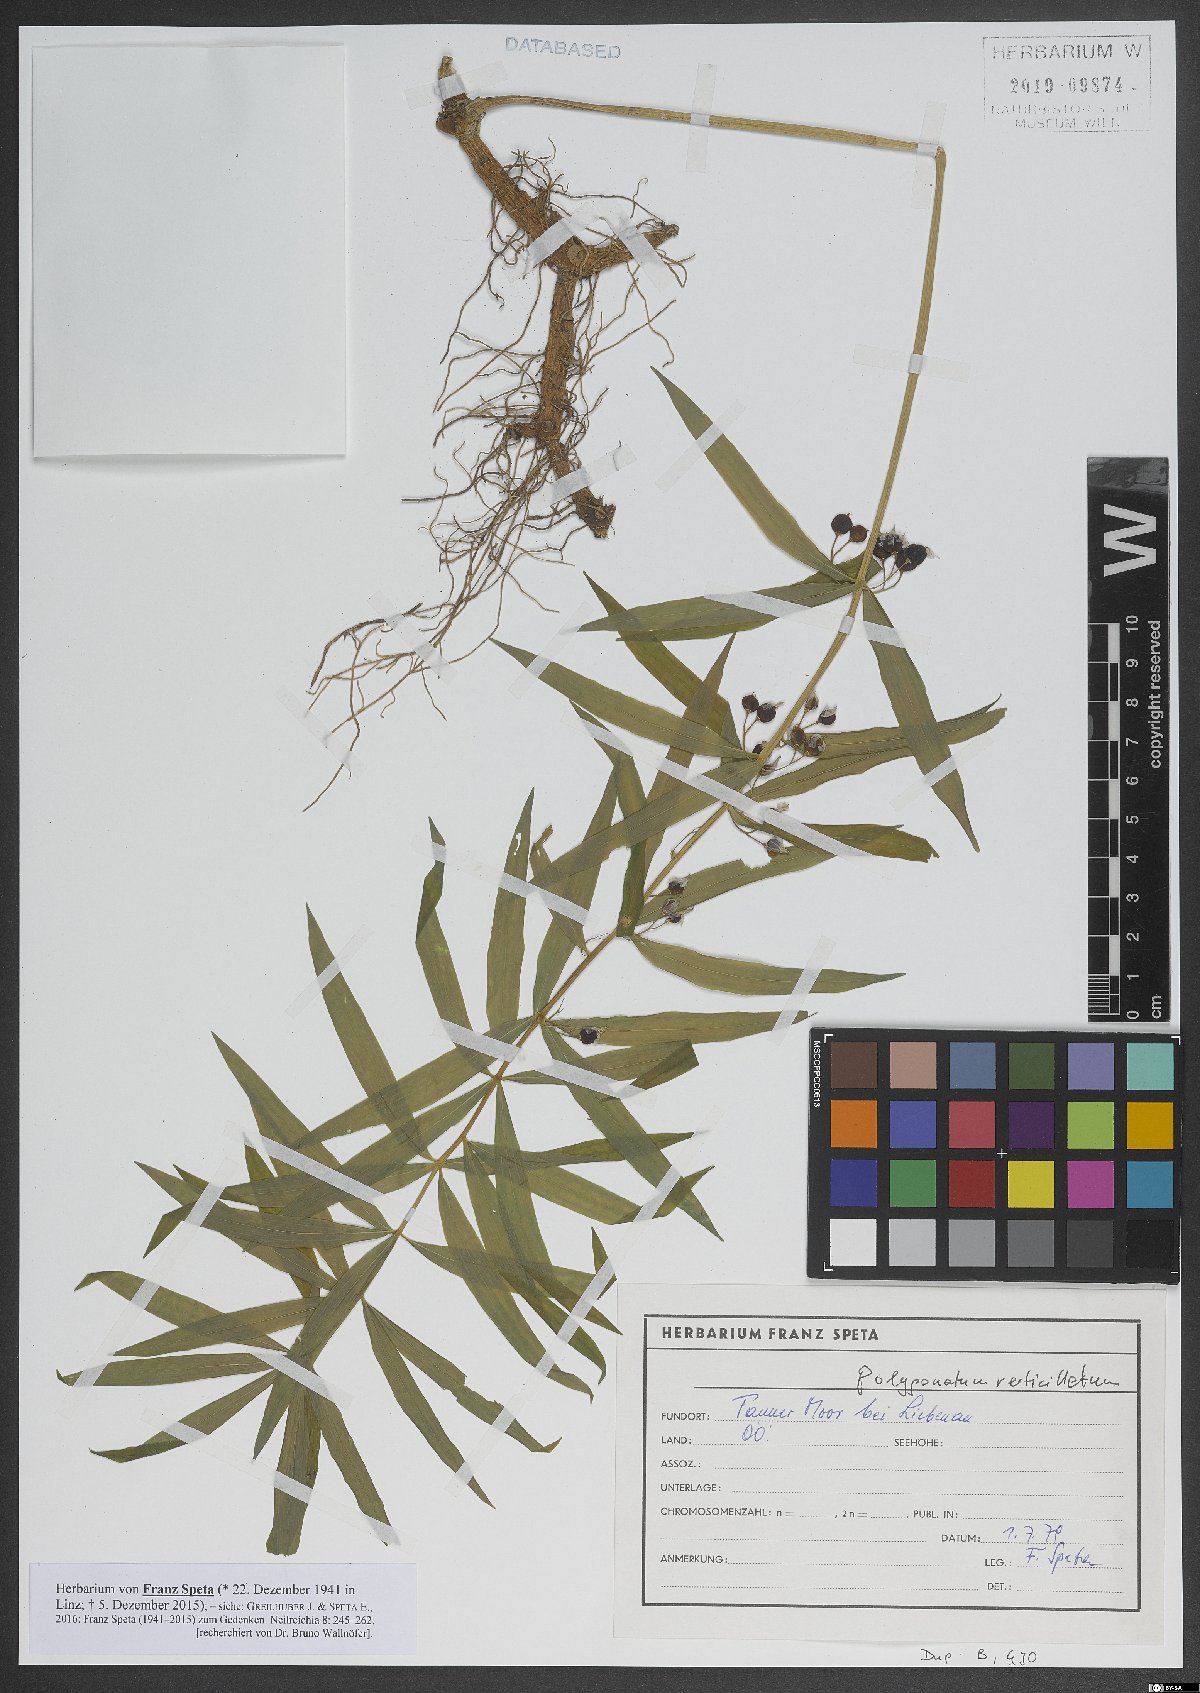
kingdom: Plantae
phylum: Tracheophyta
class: Liliopsida
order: Asparagales
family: Asparagaceae
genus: Polygonatum
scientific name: Polygonatum verticillatum
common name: Whorled solomon's-seal
